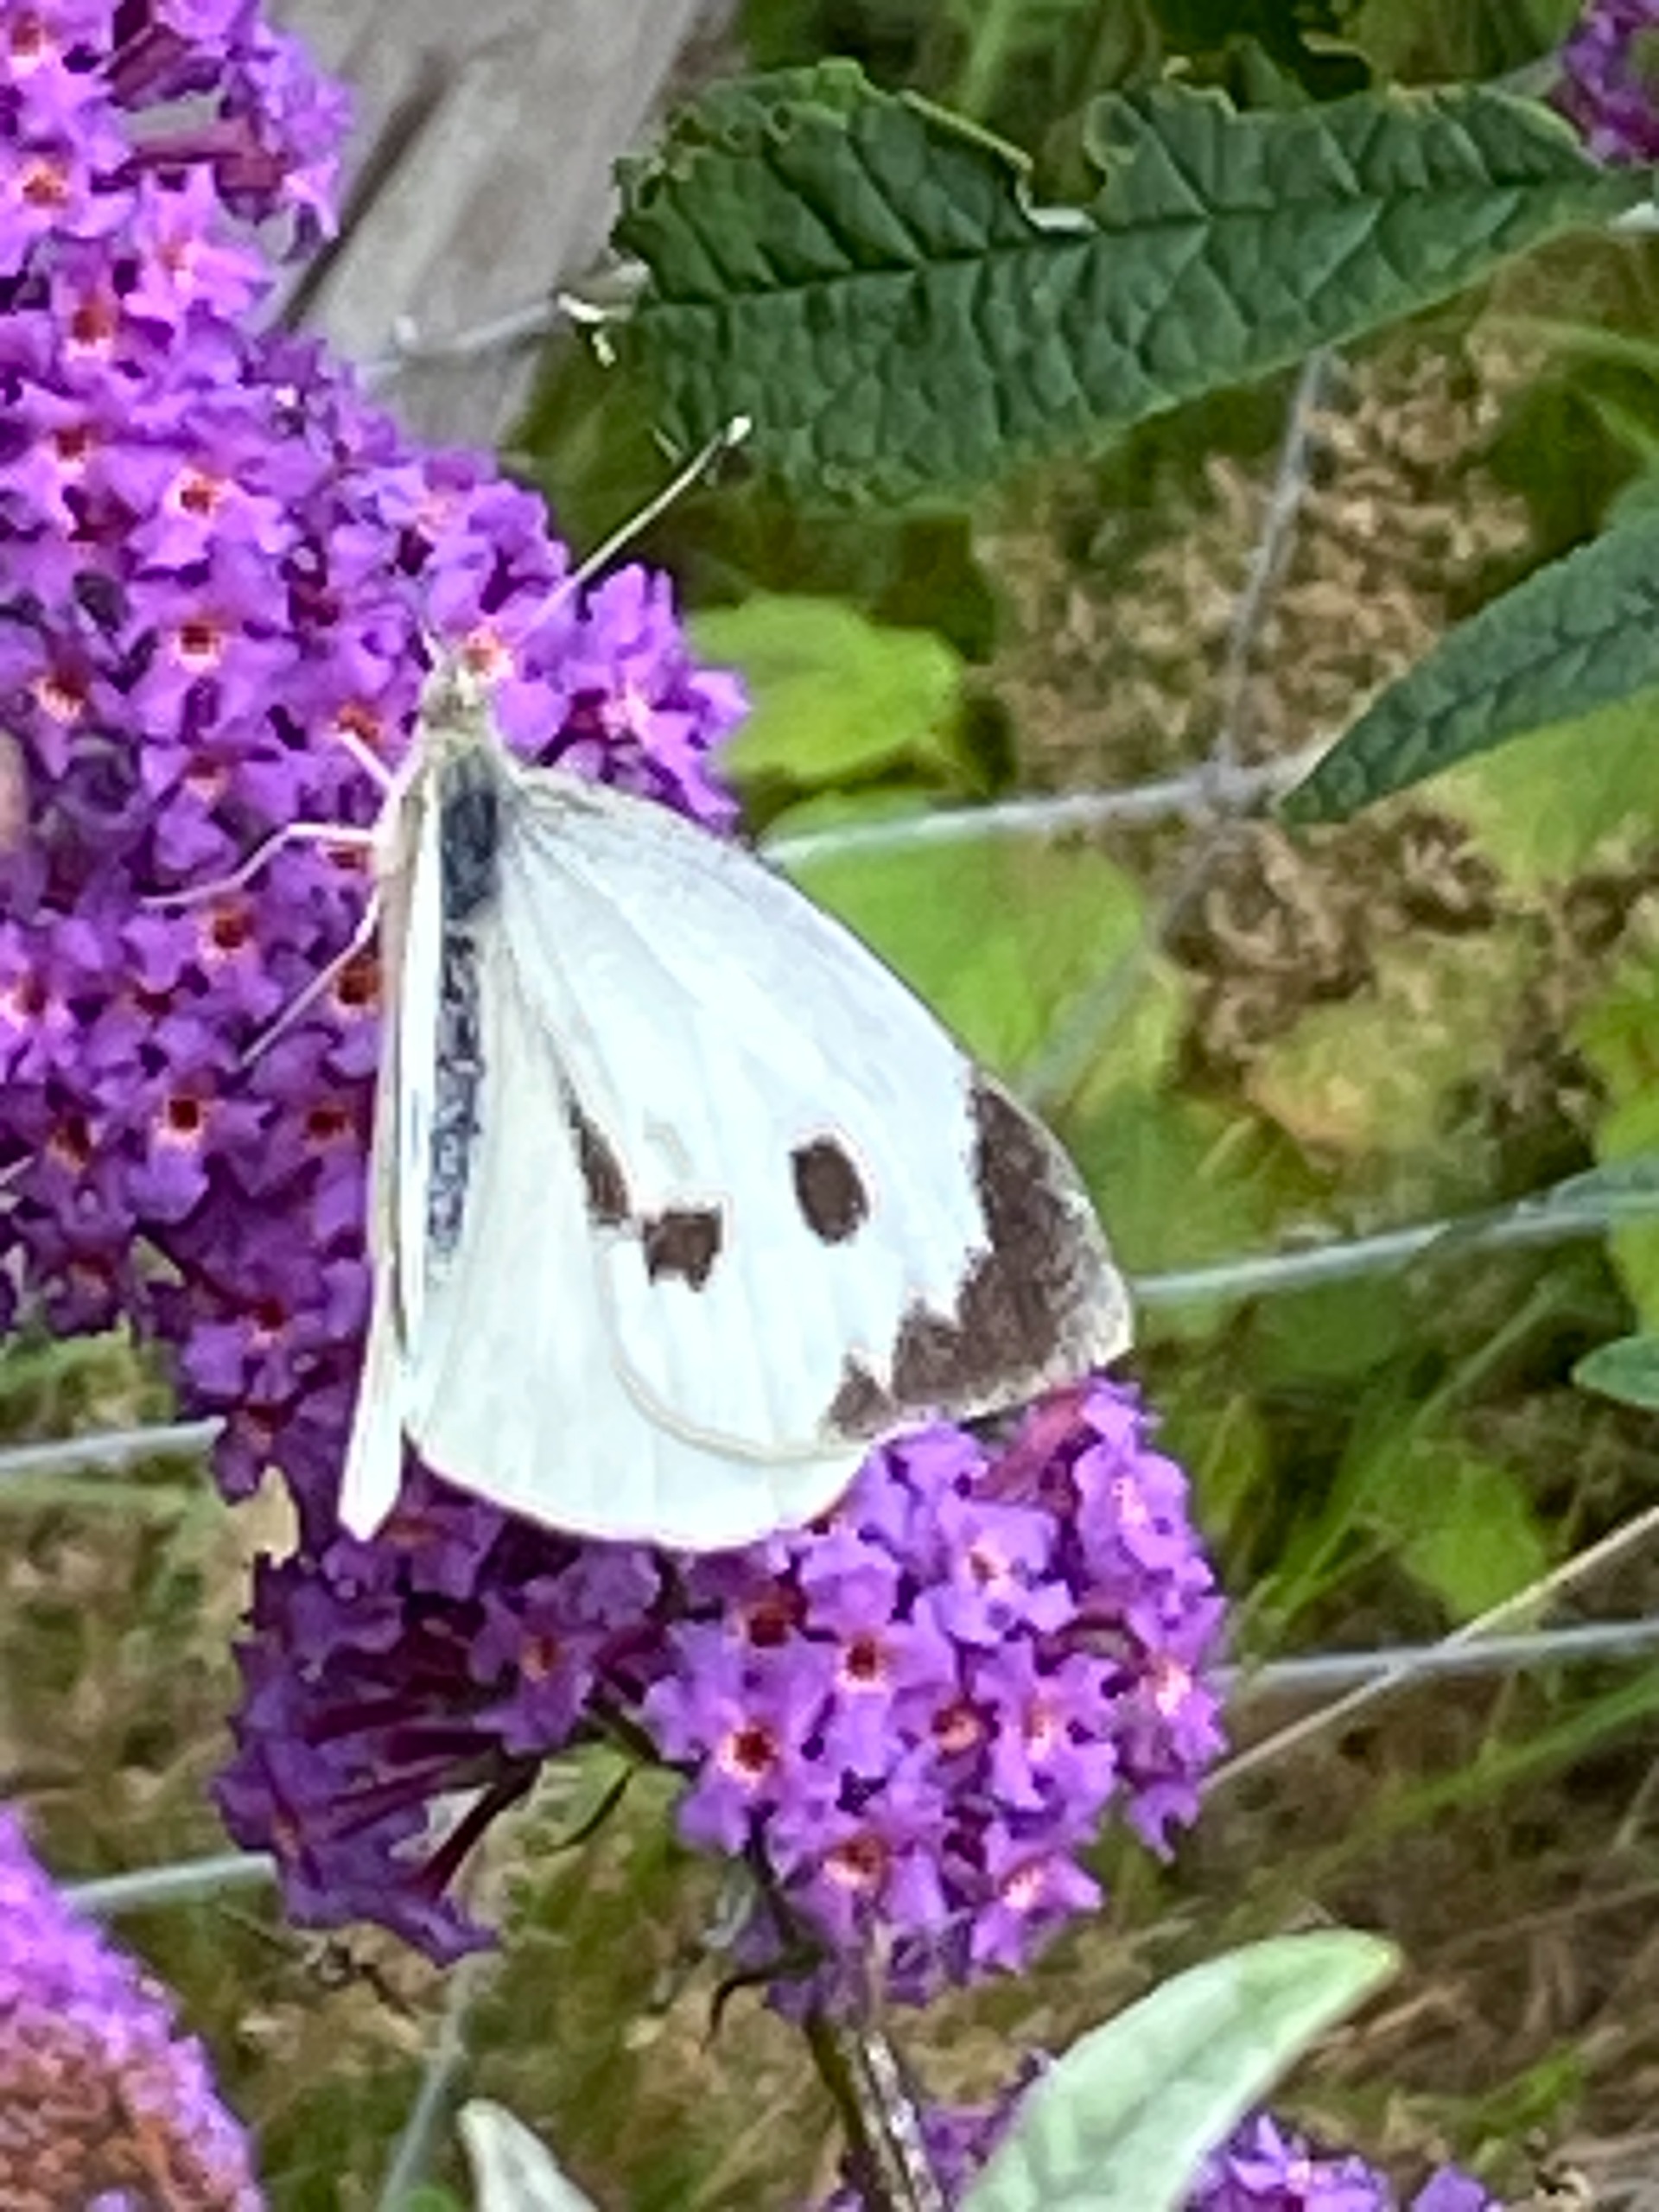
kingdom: Animalia
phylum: Arthropoda
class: Insecta
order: Lepidoptera
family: Pieridae
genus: Pieris
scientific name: Pieris brassicae
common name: Stor kålsommerfugl
